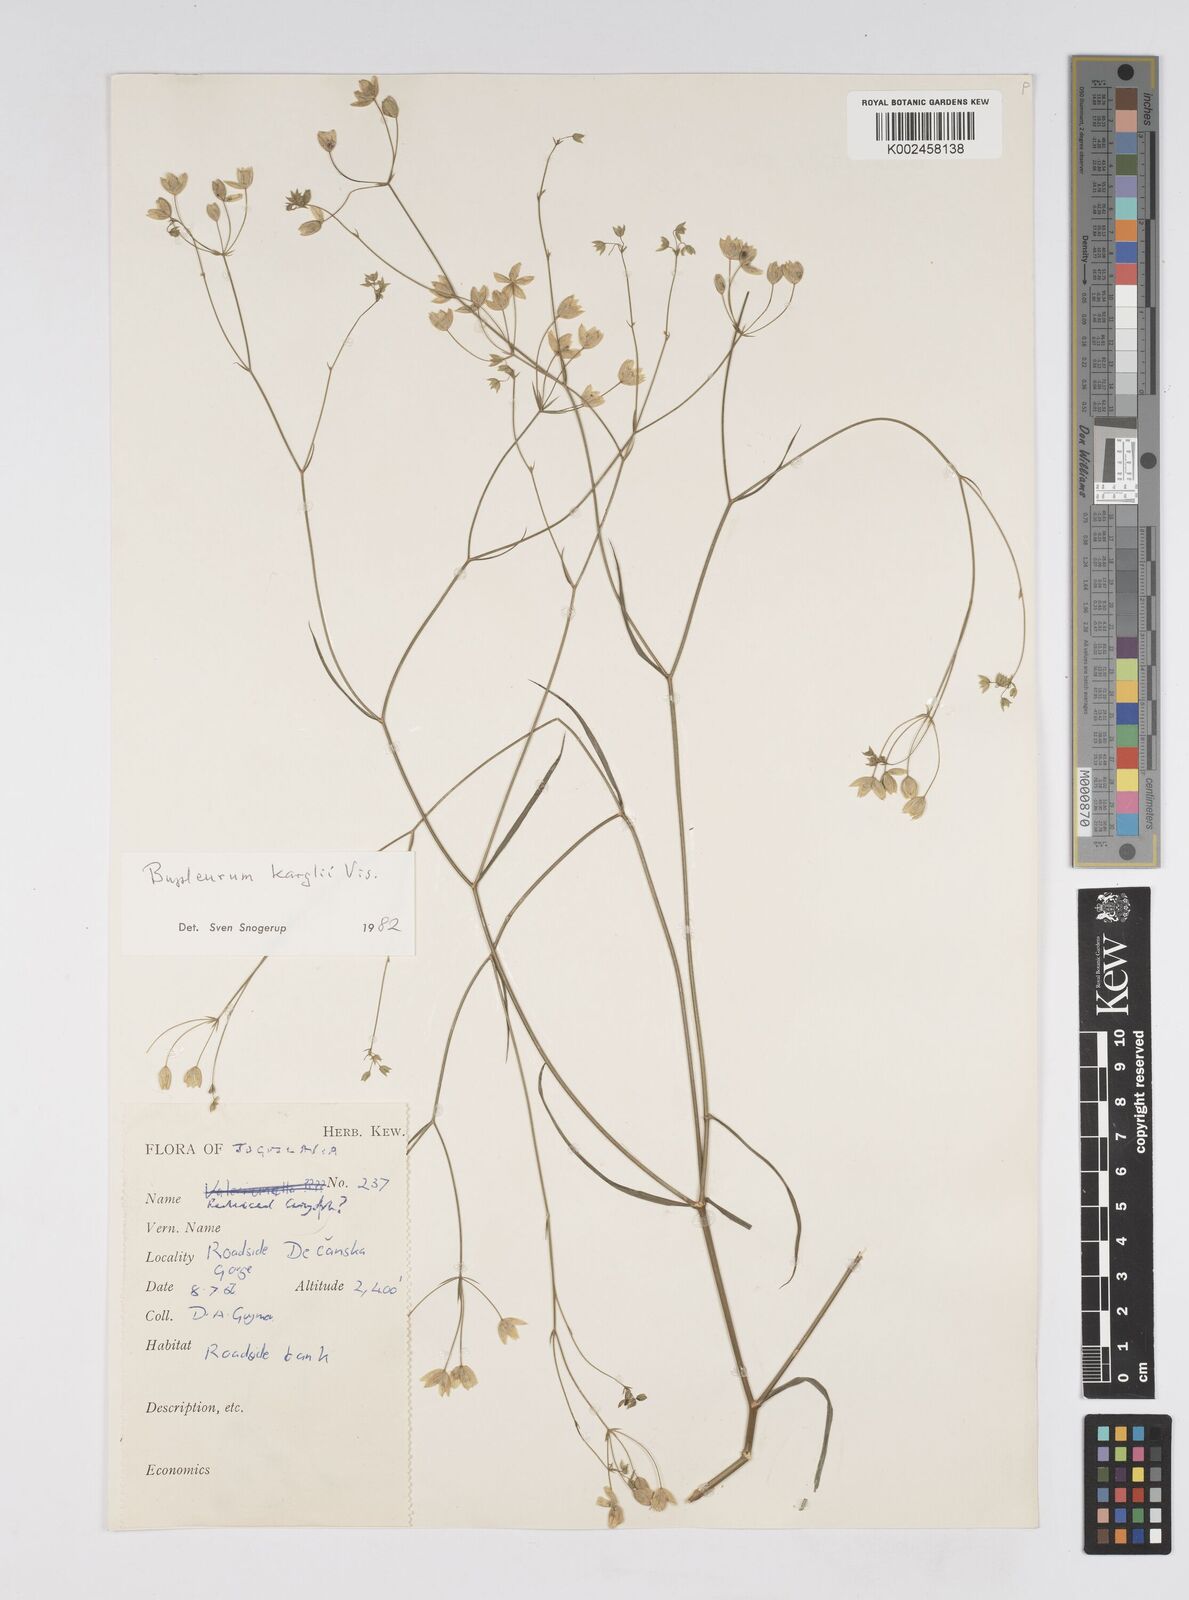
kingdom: Plantae
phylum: Tracheophyta
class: Magnoliopsida
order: Apiales
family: Apiaceae
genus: Bupleurum
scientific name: Bupleurum karglii
